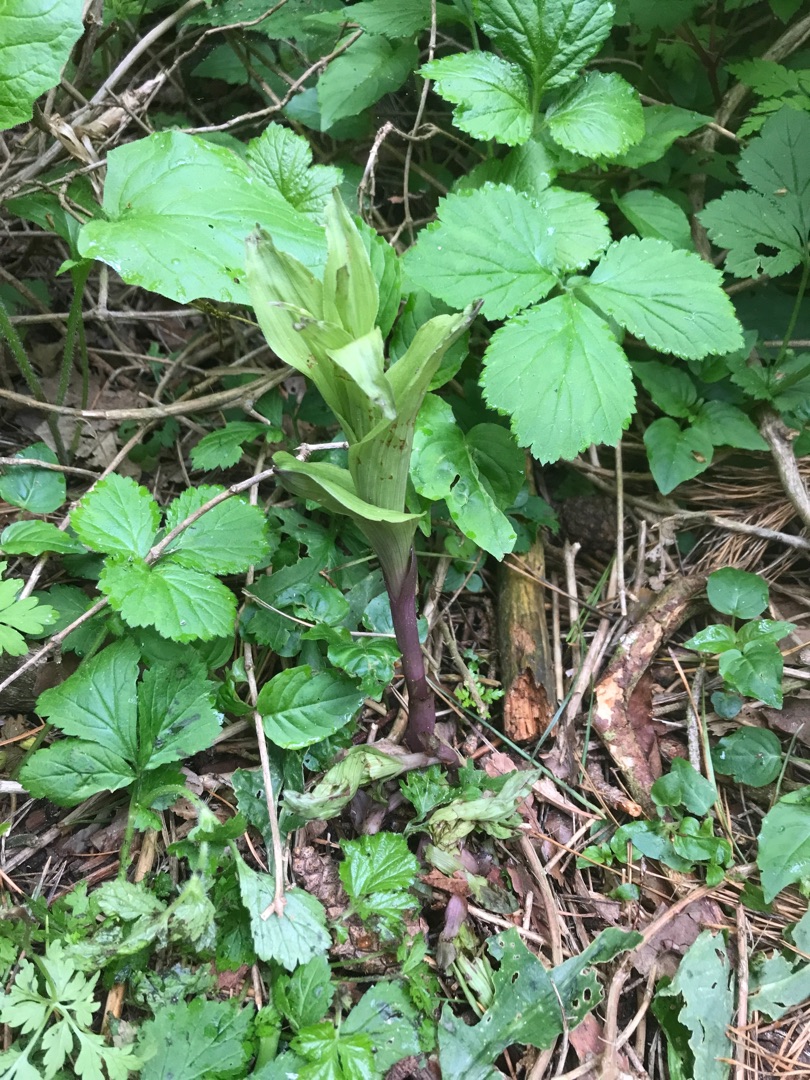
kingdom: Plantae
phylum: Tracheophyta
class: Liliopsida
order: Asparagales
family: Orchidaceae
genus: Epipactis
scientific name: Epipactis helleborine
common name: Skov-hullæbe
